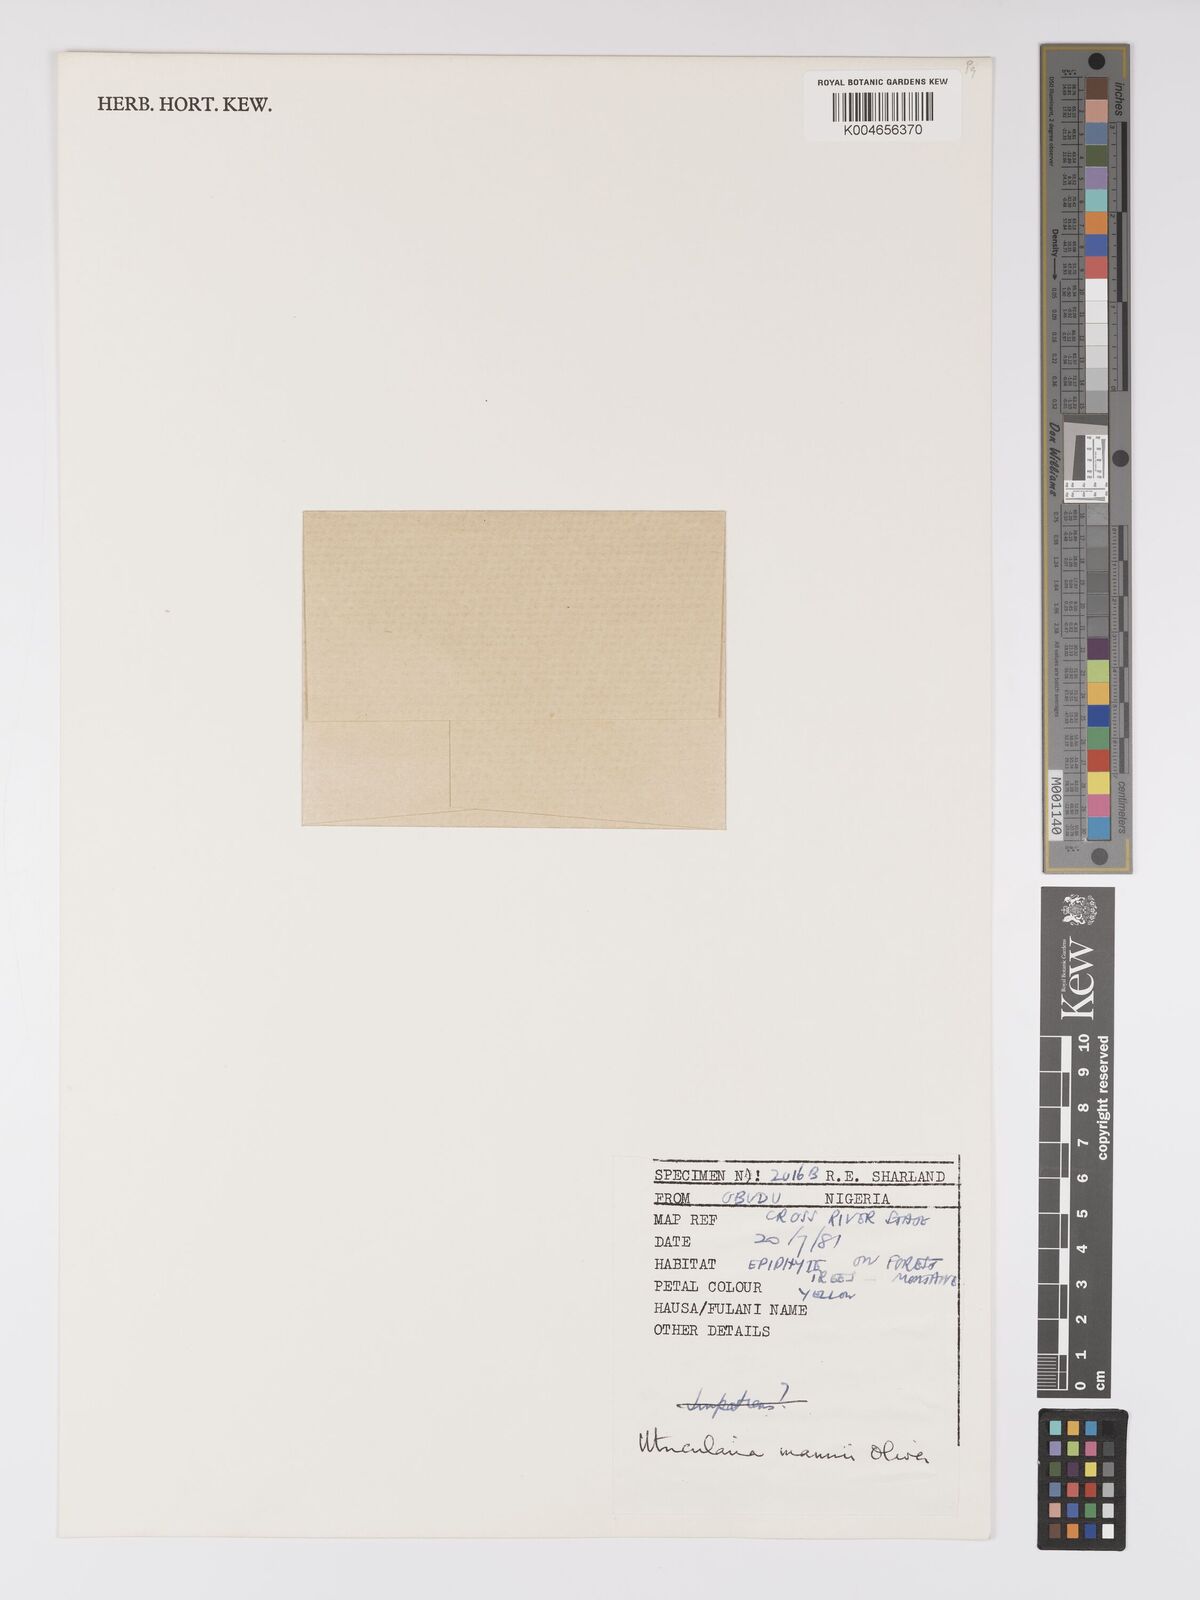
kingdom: Plantae
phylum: Tracheophyta
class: Magnoliopsida
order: Lamiales
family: Lentibulariaceae
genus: Utricularia
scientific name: Utricularia mannii
